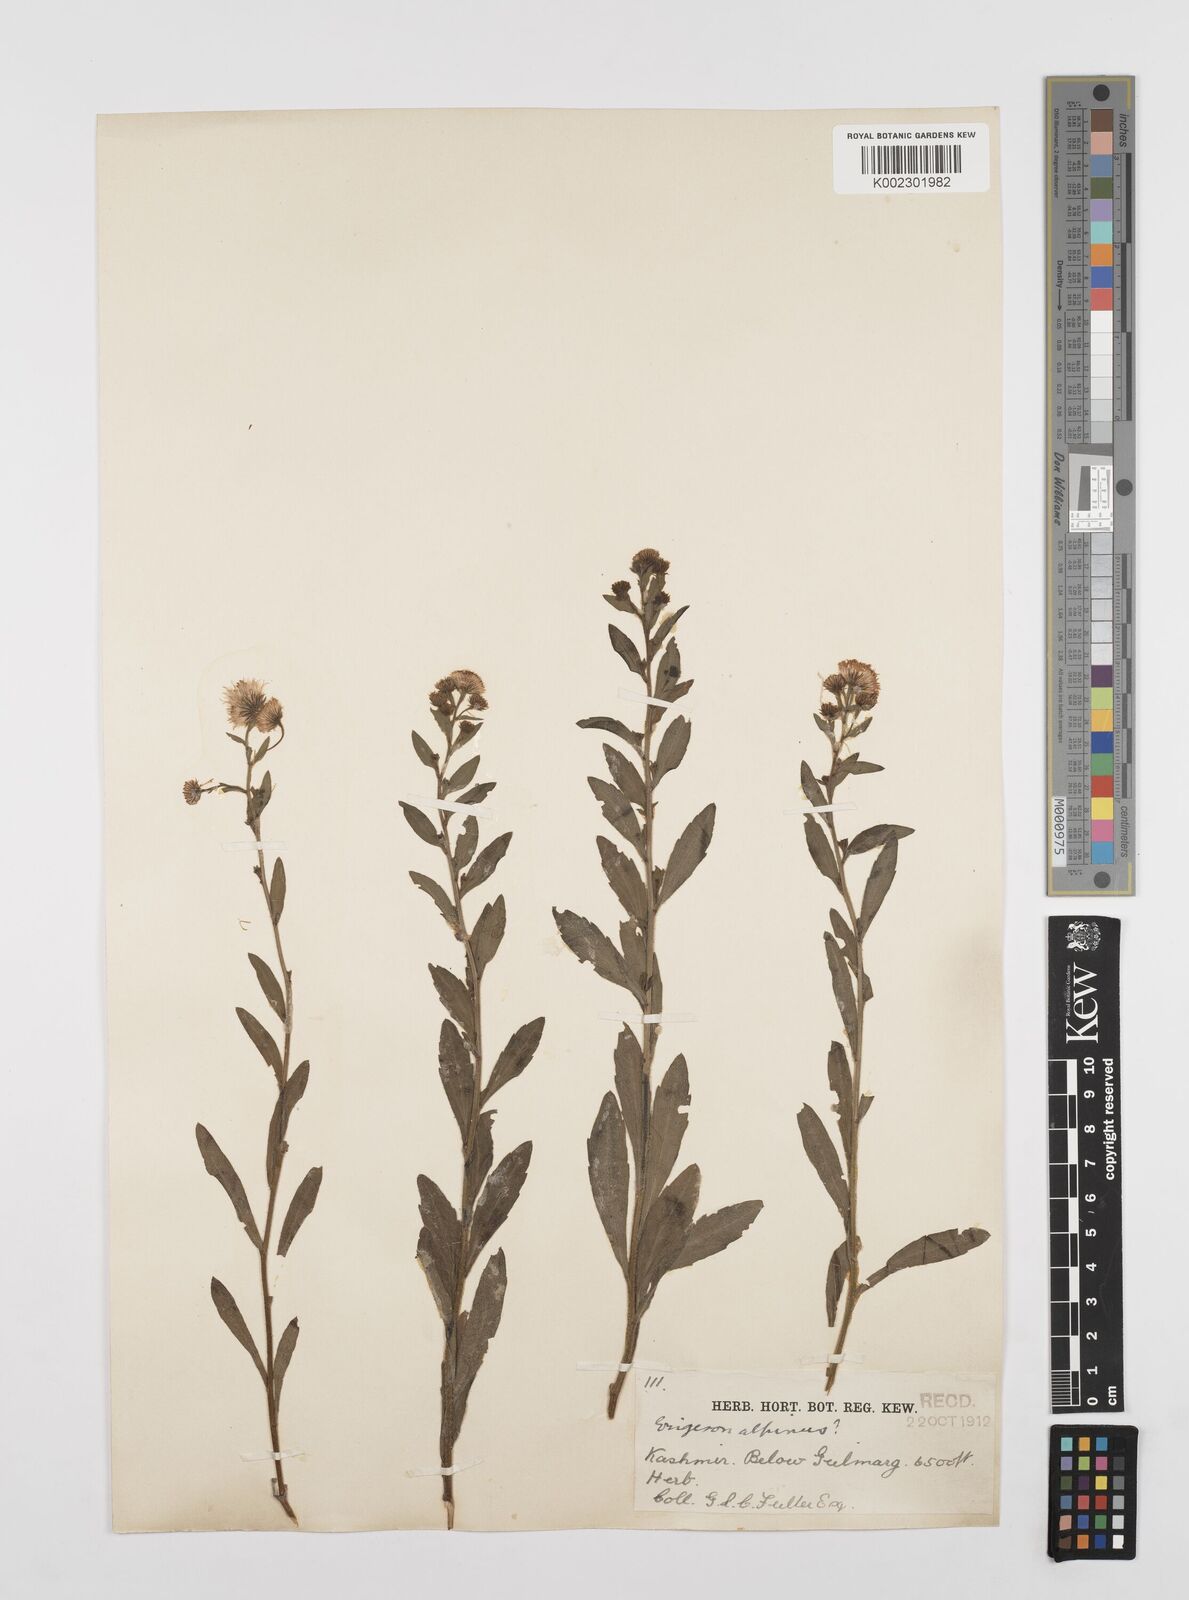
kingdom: Plantae
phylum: Tracheophyta
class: Magnoliopsida
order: Asterales
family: Asteraceae
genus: Erigeron
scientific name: Erigeron alpinus
